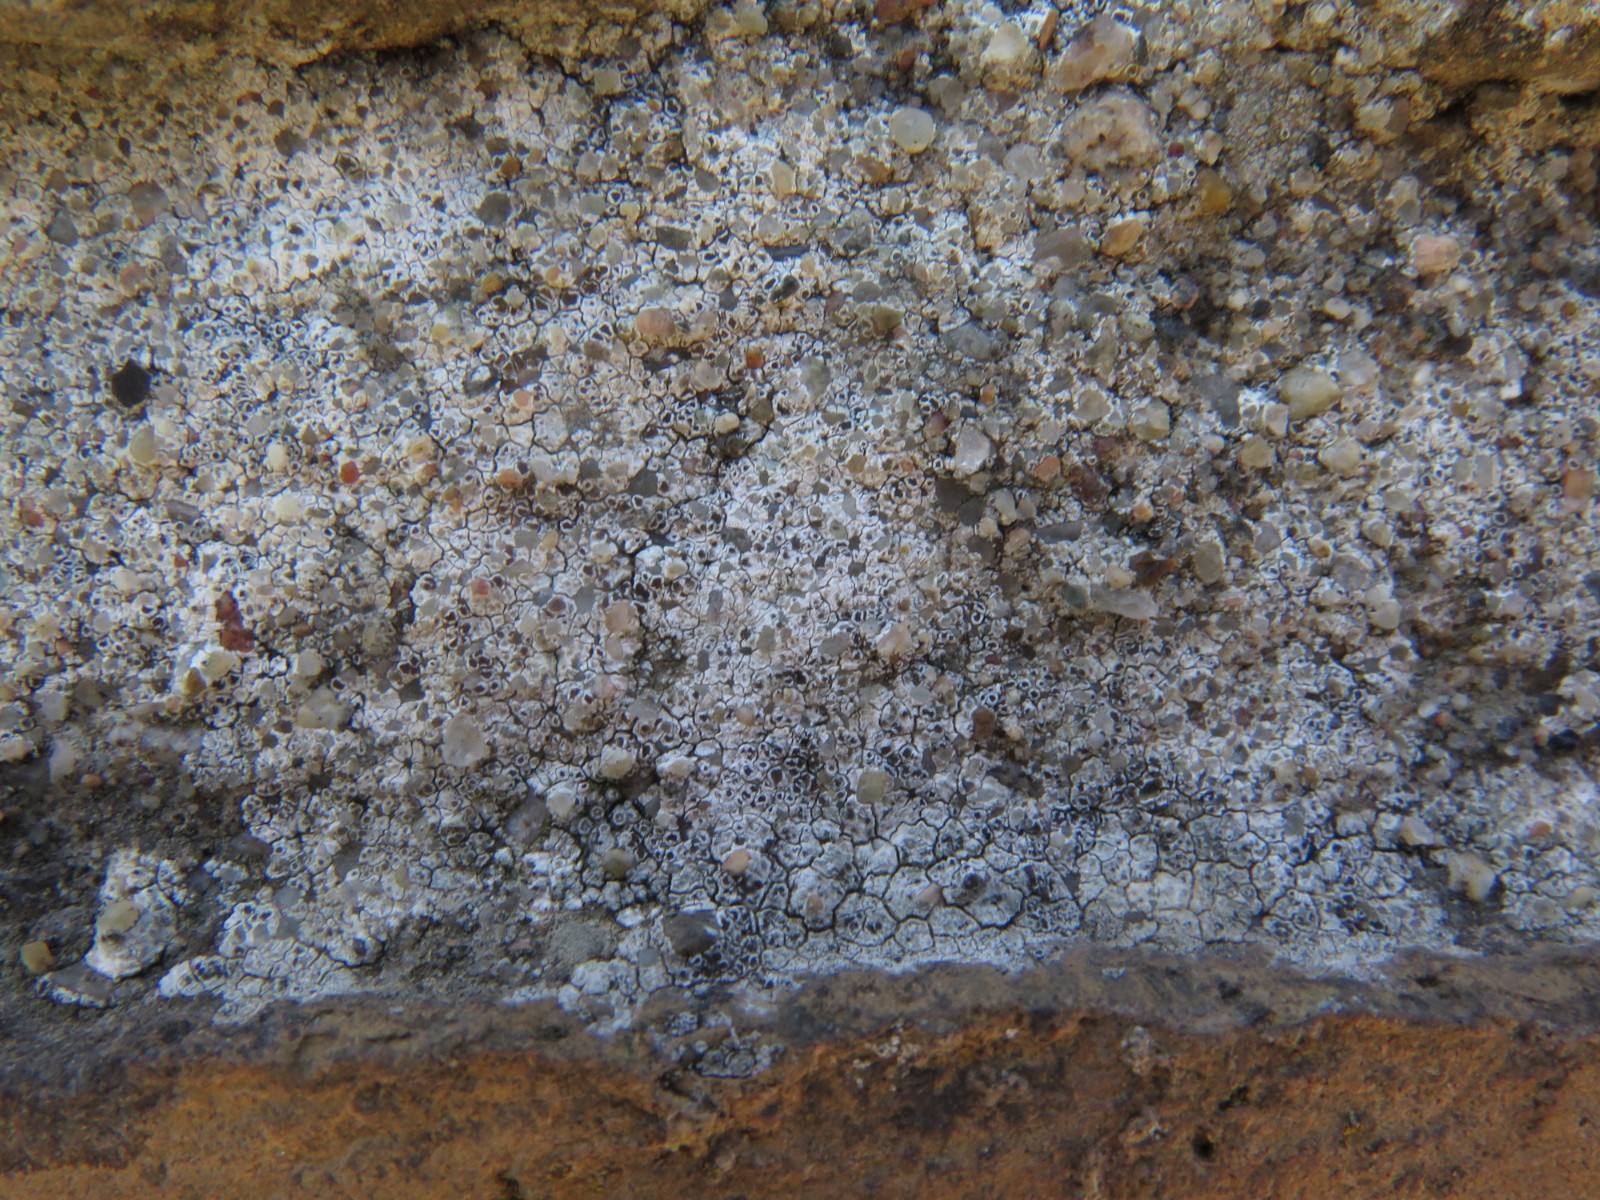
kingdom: Fungi
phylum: Ascomycota
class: Lecanoromycetes
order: Lecanorales
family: Lecanoraceae
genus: Polyozosia
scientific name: Polyozosia albescens
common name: cement-kantskivelav
